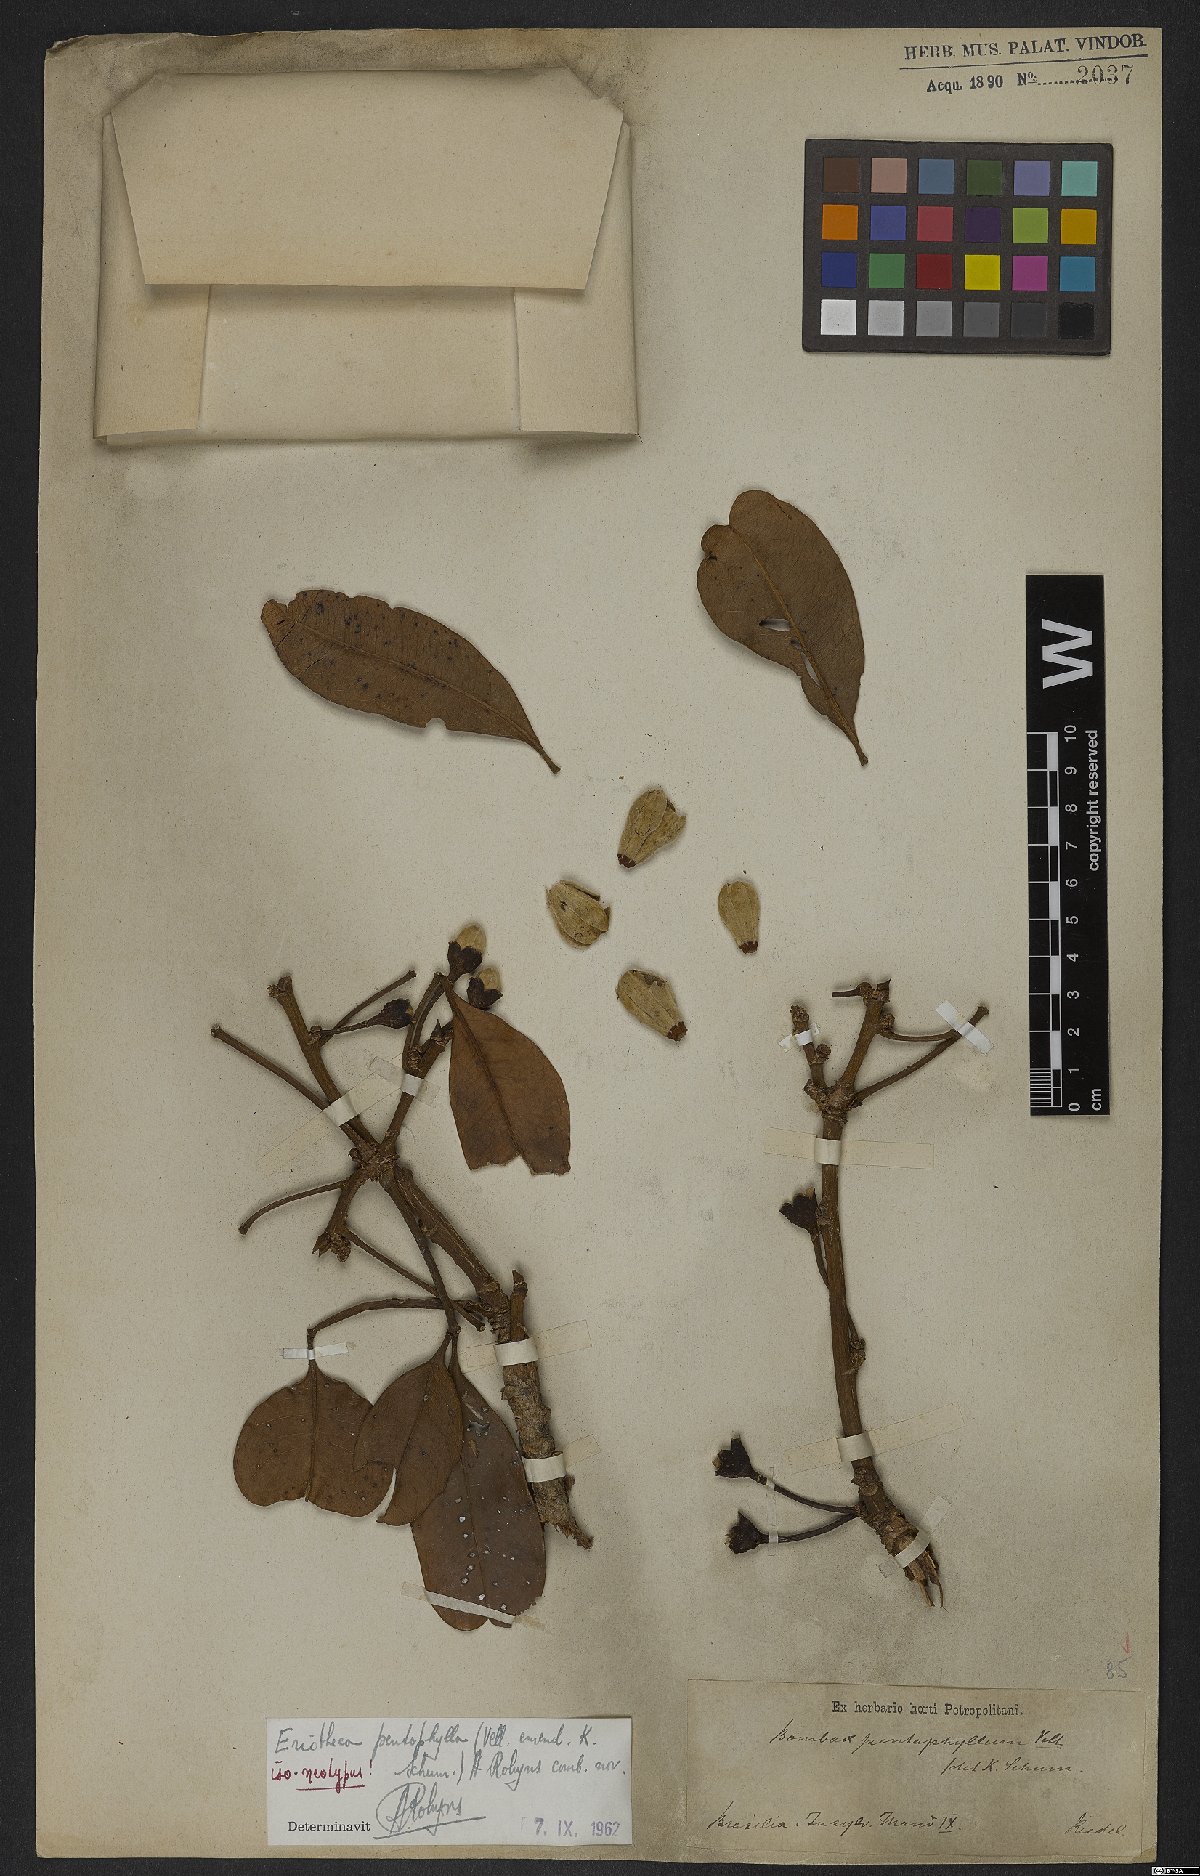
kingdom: Plantae
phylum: Tracheophyta
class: Magnoliopsida
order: Malvales
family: Malvaceae
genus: Eriotheca
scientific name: Eriotheca pentaphylla
